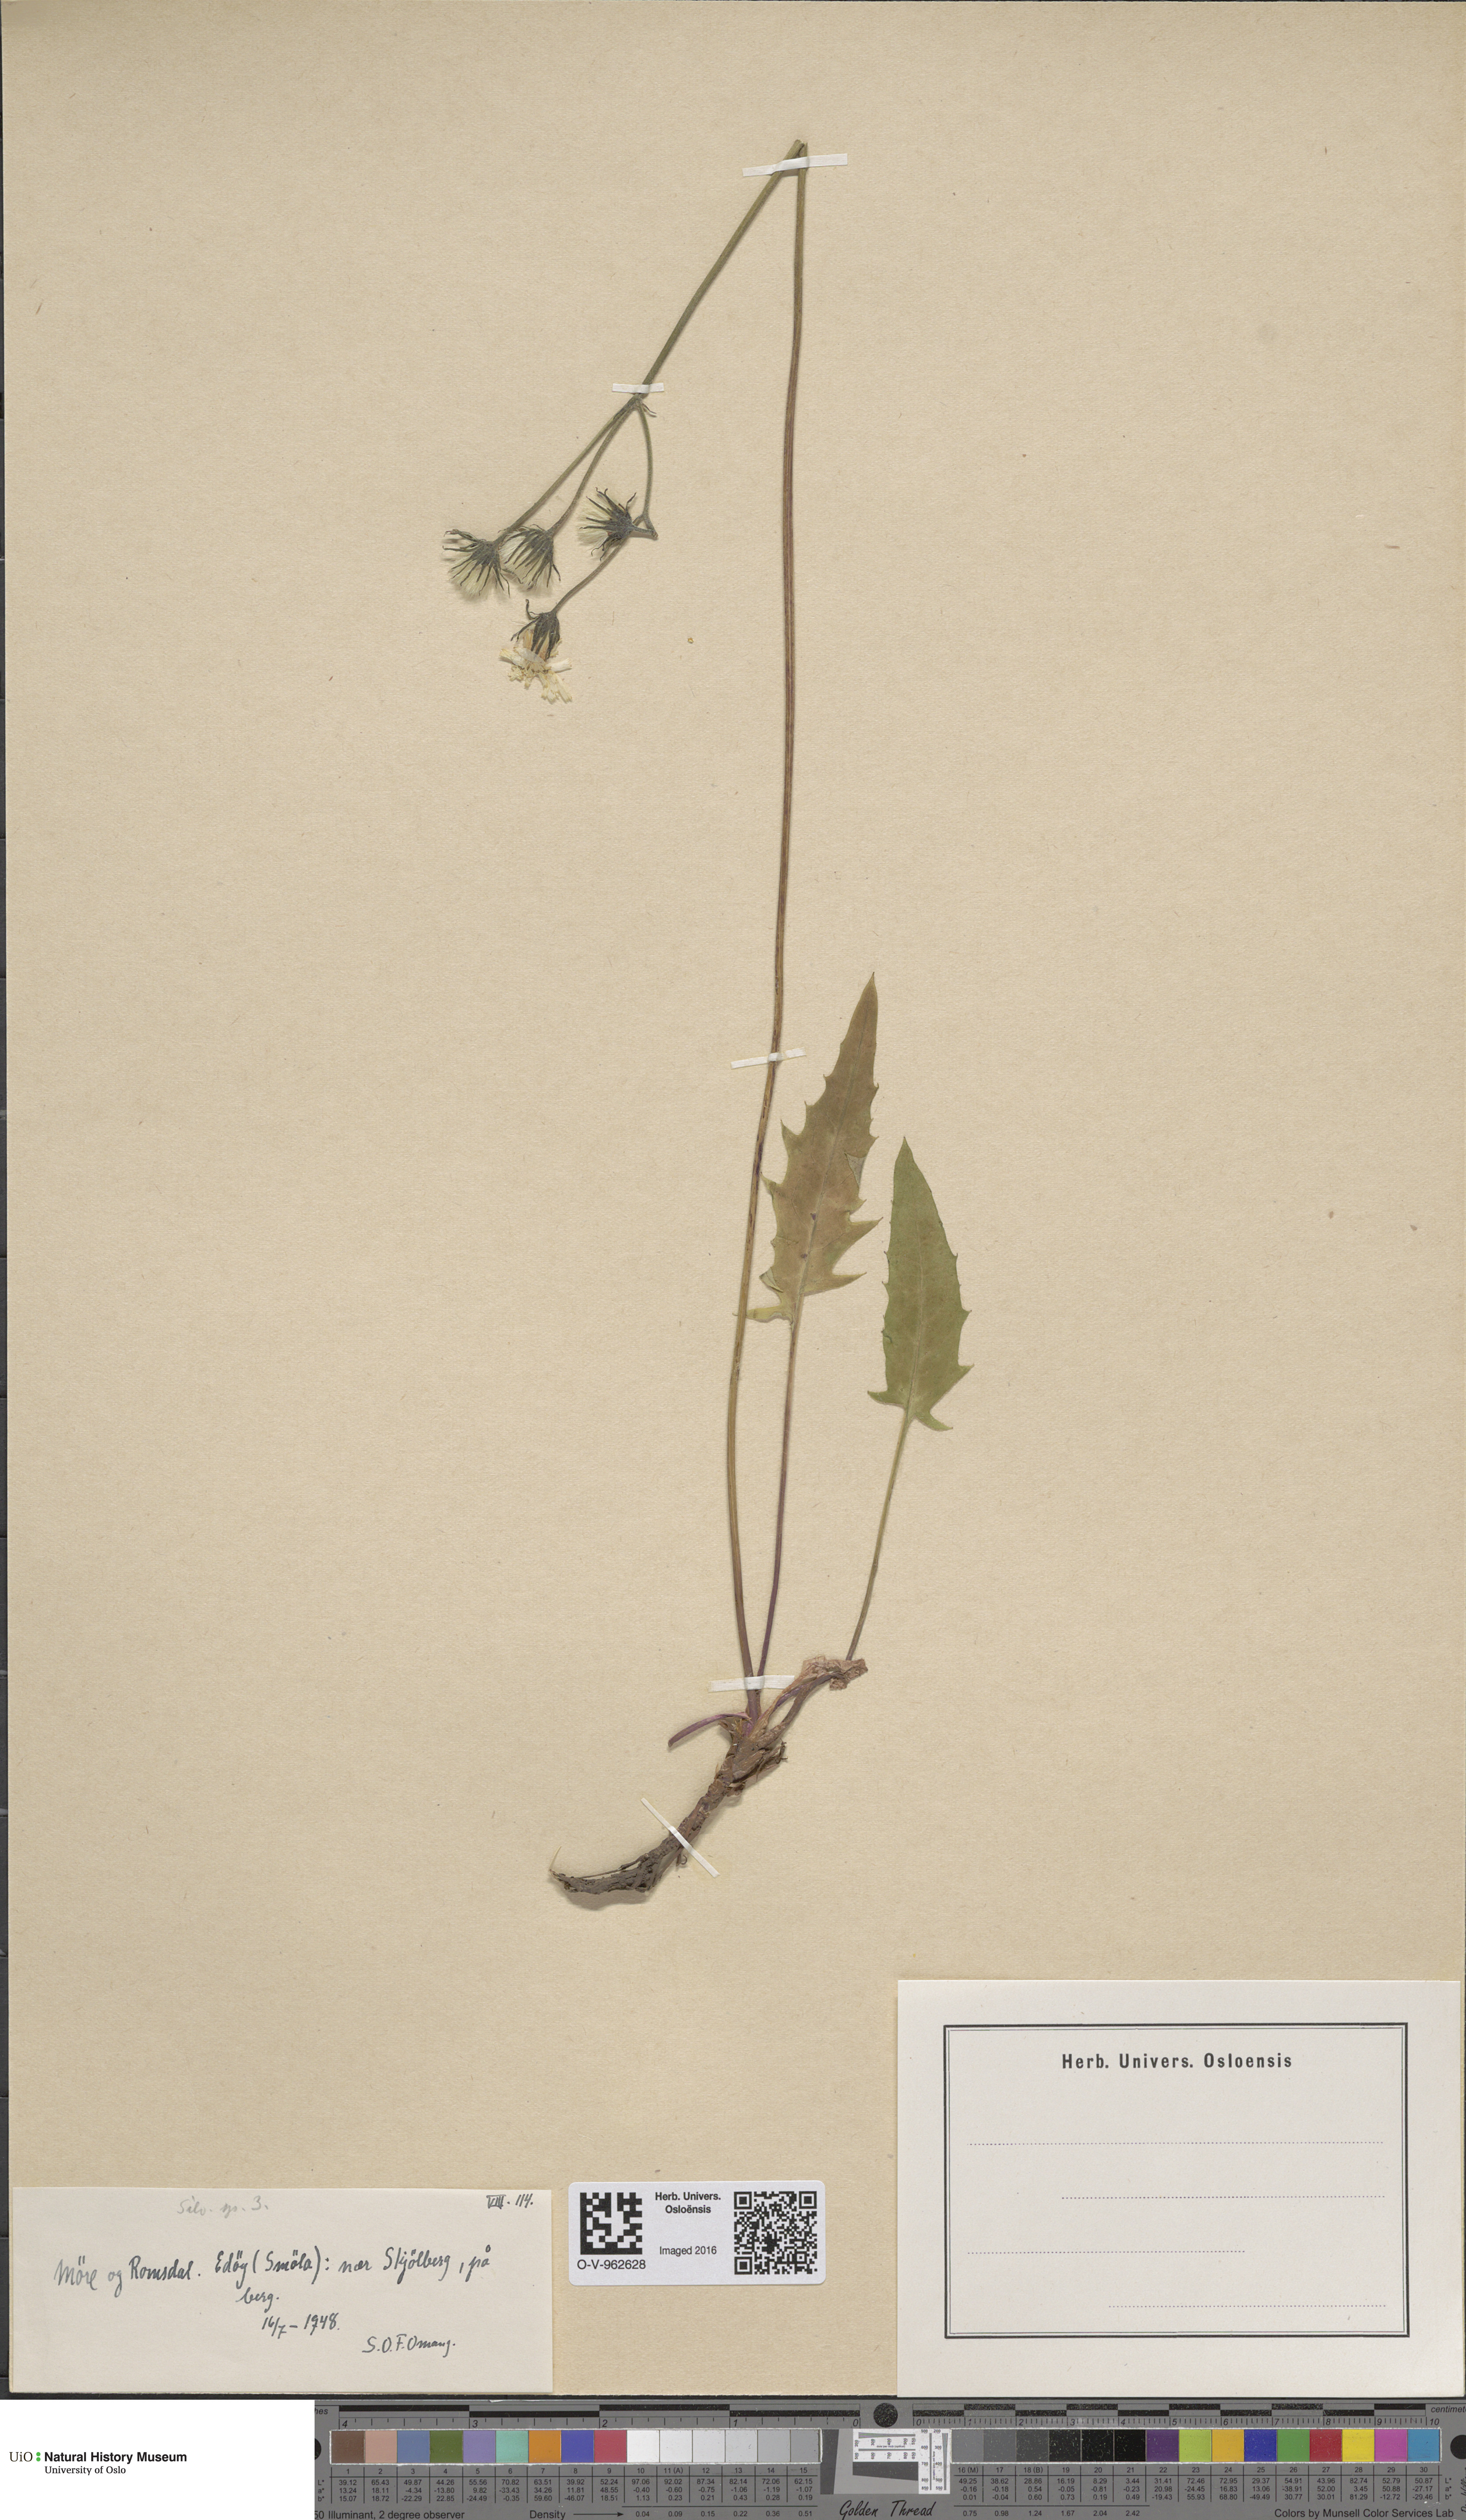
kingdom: Plantae
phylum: Tracheophyta
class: Magnoliopsida
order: Asterales
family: Asteraceae
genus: Hieracium
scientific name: Hieracium
